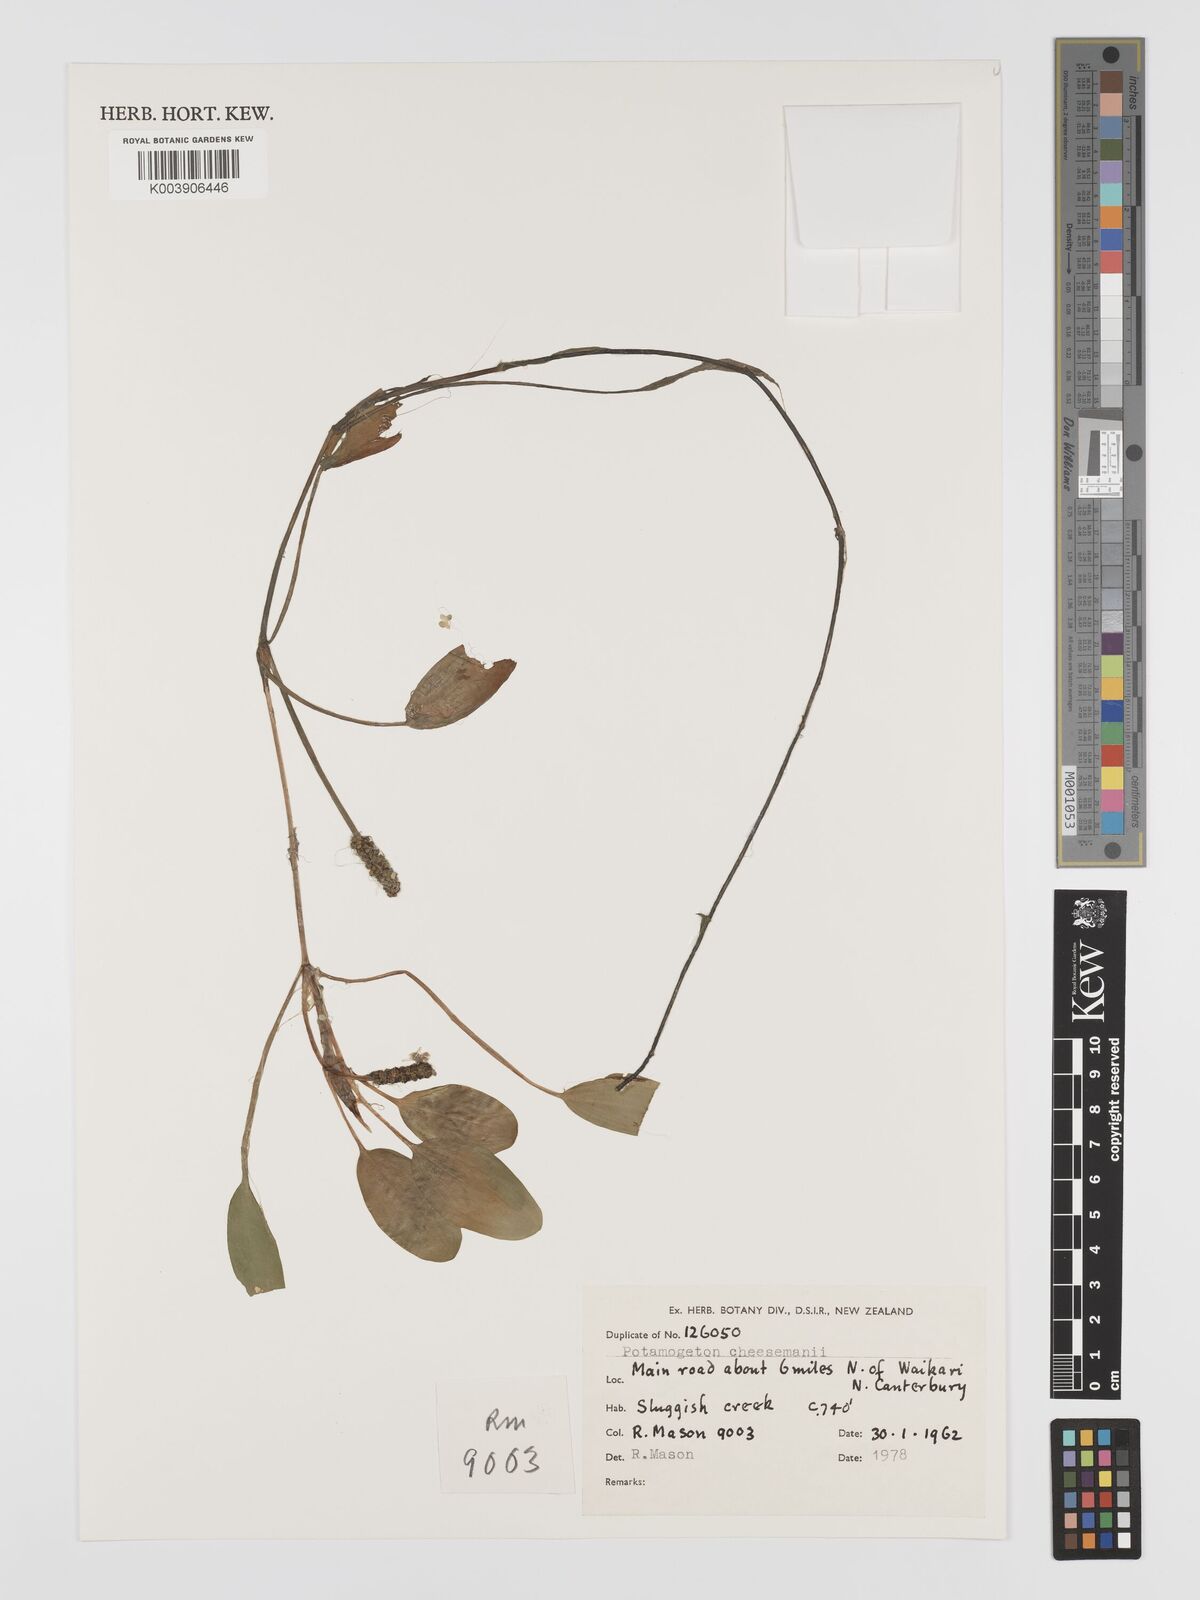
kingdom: Plantae
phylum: Tracheophyta
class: Liliopsida
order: Alismatales
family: Potamogetonaceae
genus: Potamogeton
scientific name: Potamogeton cheesemanii
